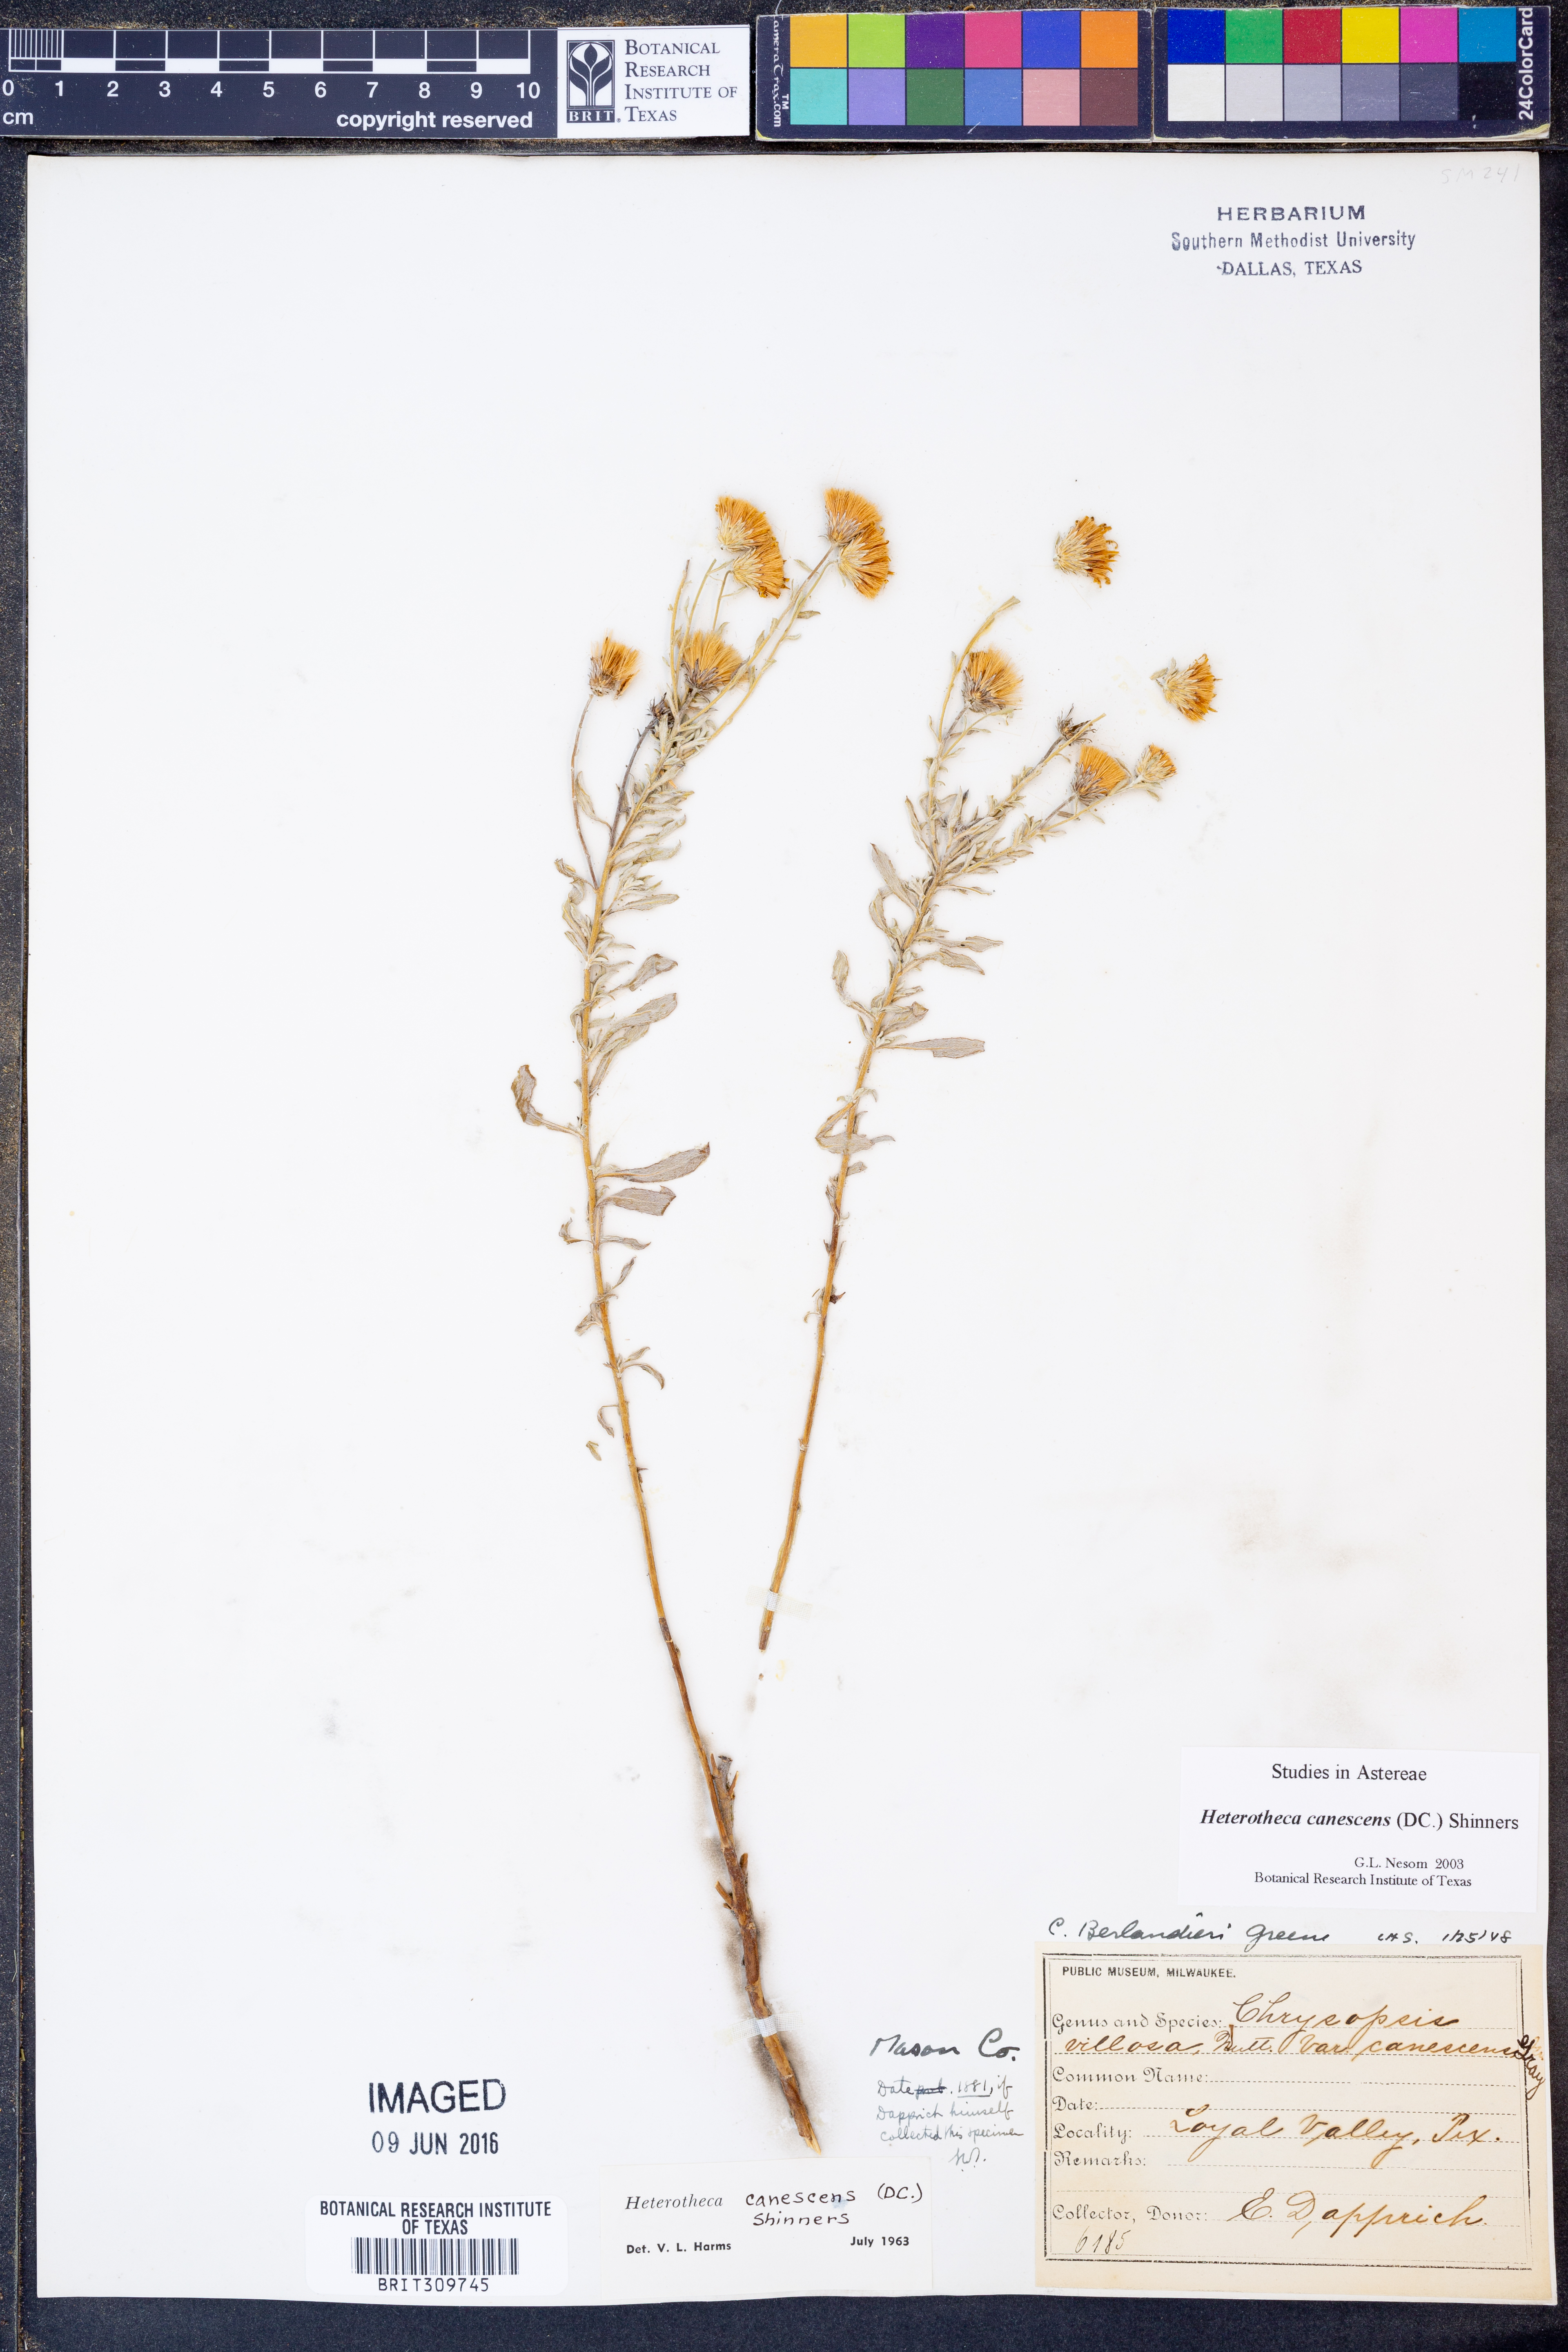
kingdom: Plantae
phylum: Tracheophyta
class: Magnoliopsida
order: Asterales
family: Asteraceae
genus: Heterotheca
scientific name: Heterotheca canescens
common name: Hoary golden-aster
